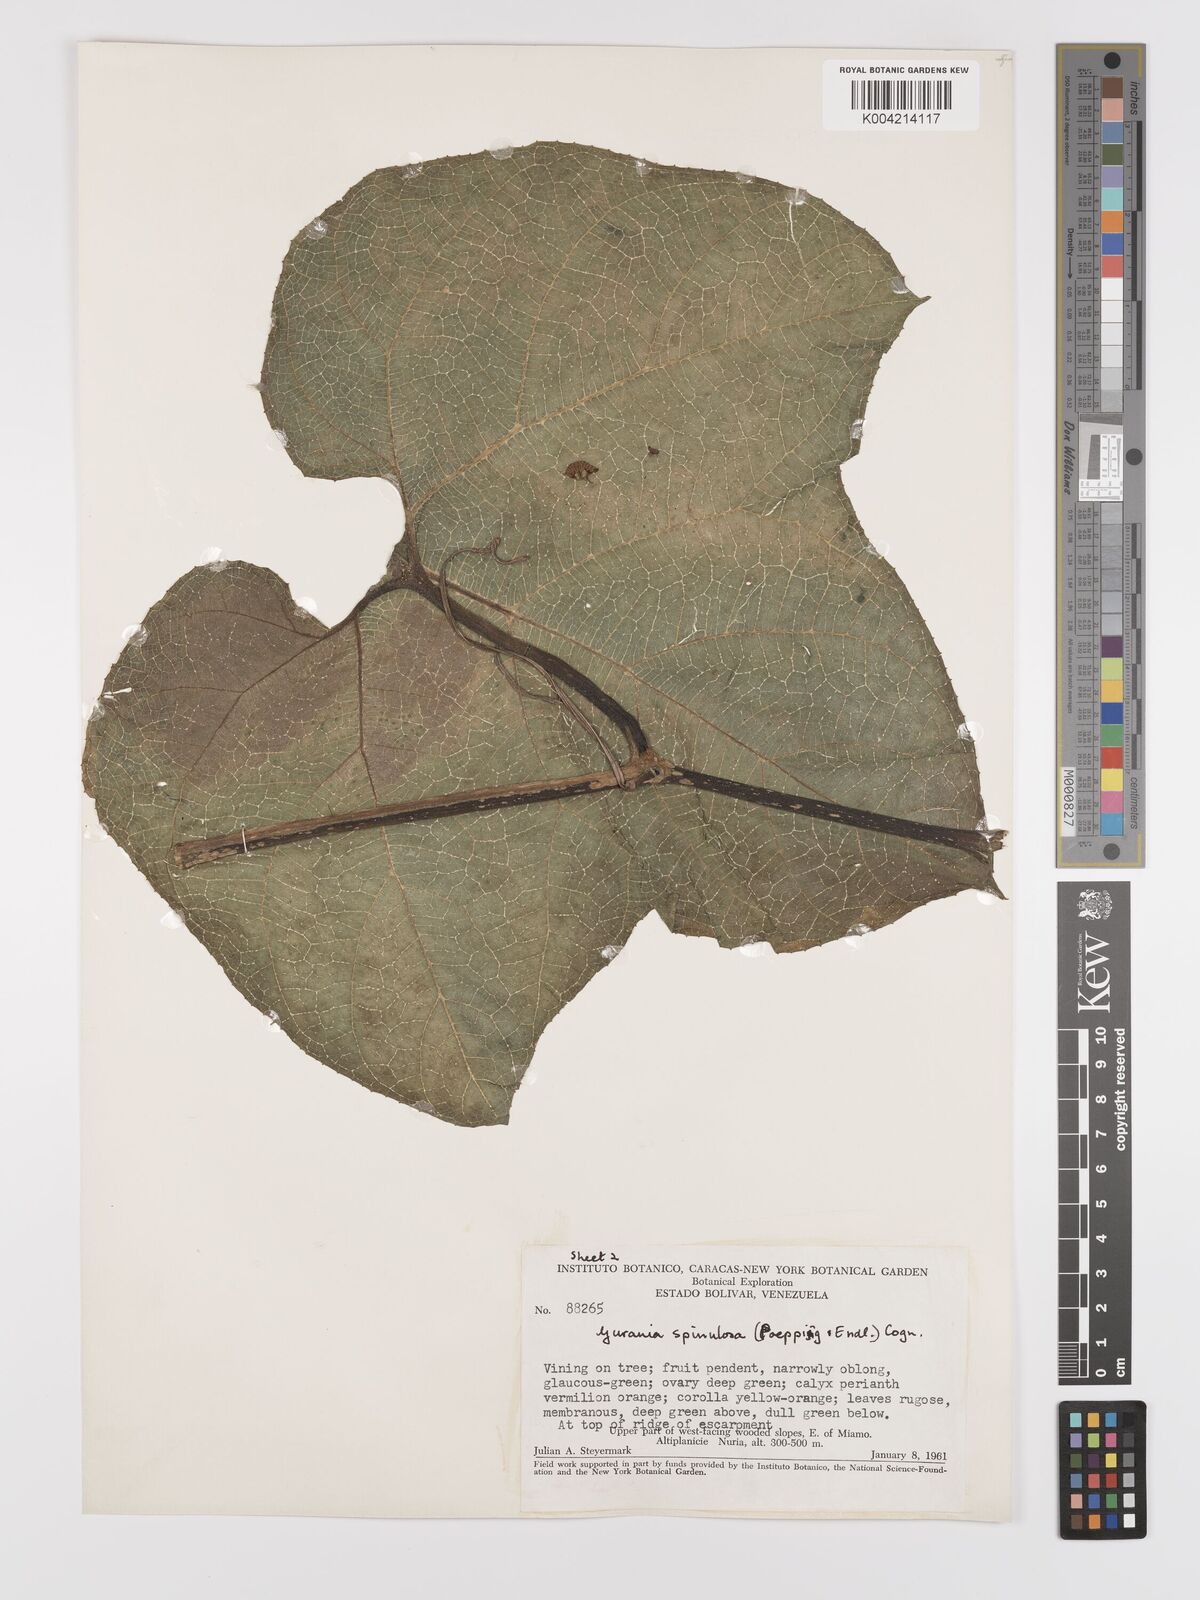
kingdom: Plantae
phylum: Tracheophyta
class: Magnoliopsida
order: Cucurbitales
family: Cucurbitaceae
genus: Gurania
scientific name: Gurania lobata
